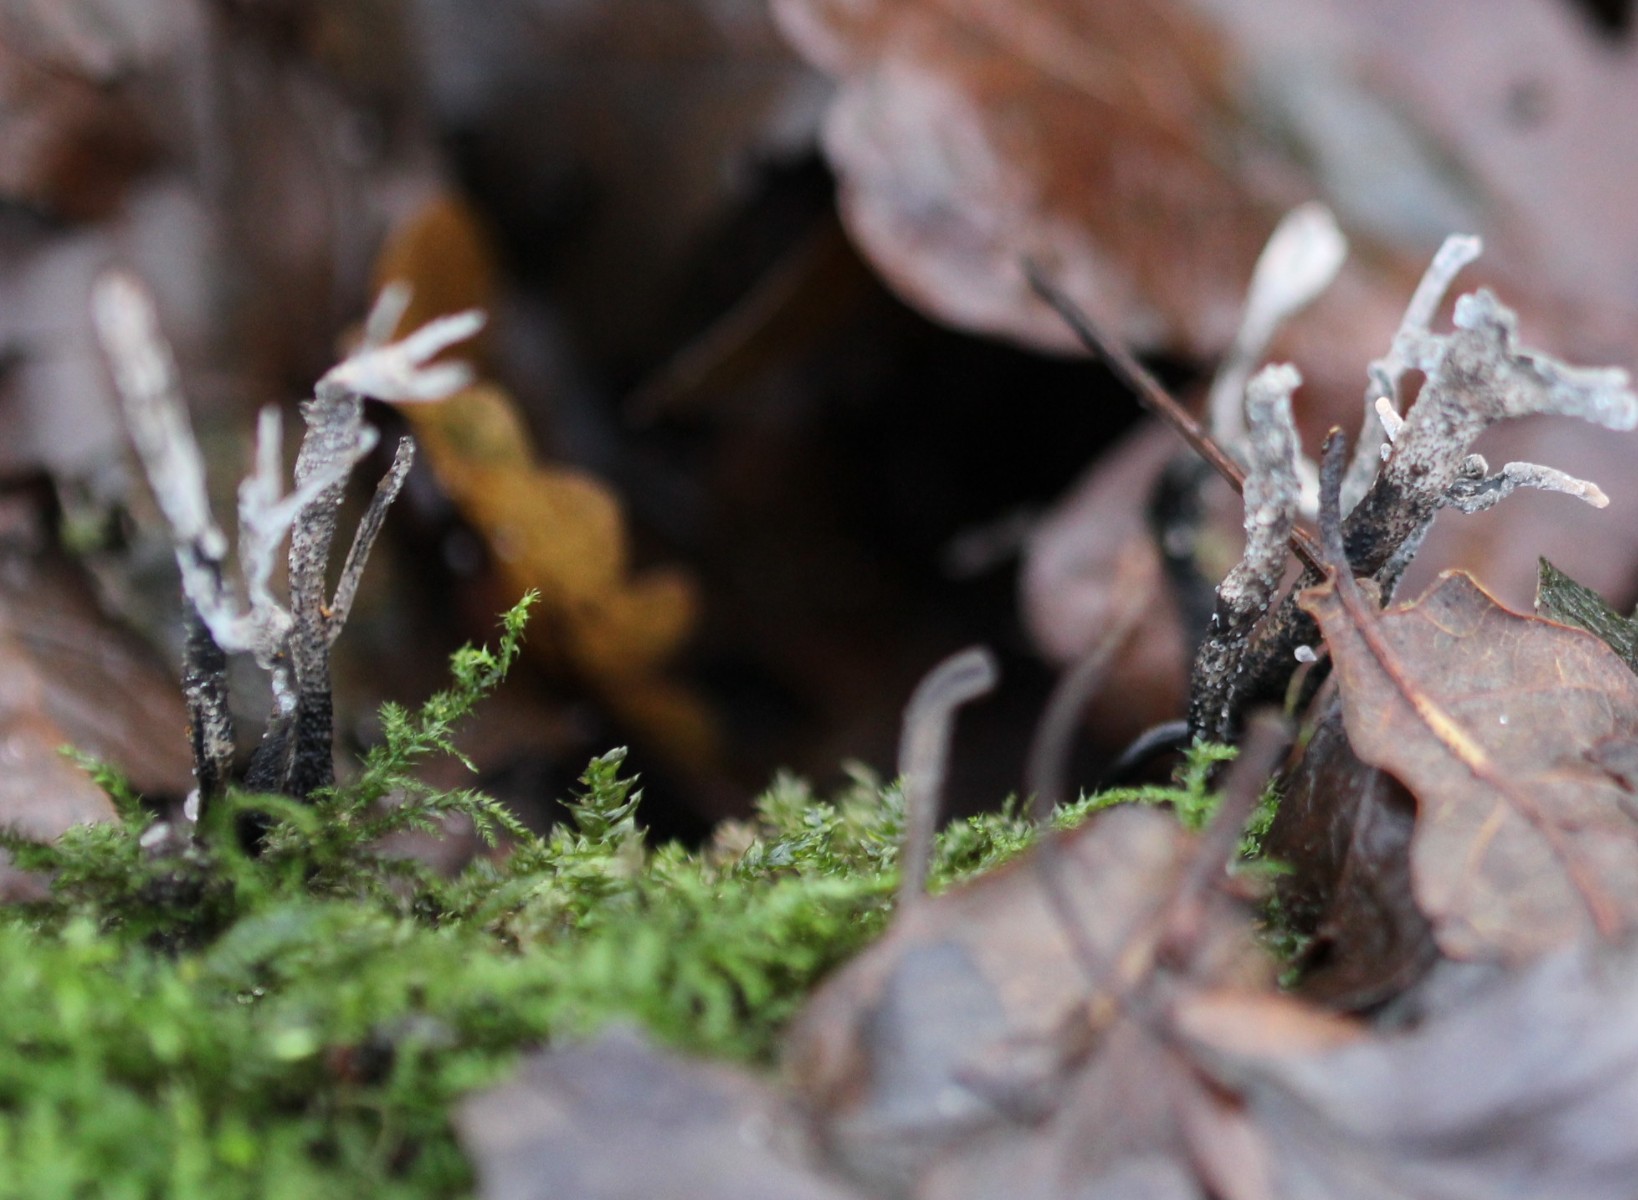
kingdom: Fungi
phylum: Ascomycota
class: Sordariomycetes
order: Xylariales
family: Xylariaceae
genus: Xylaria
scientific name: Xylaria hypoxylon
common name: grenet stødsvamp
